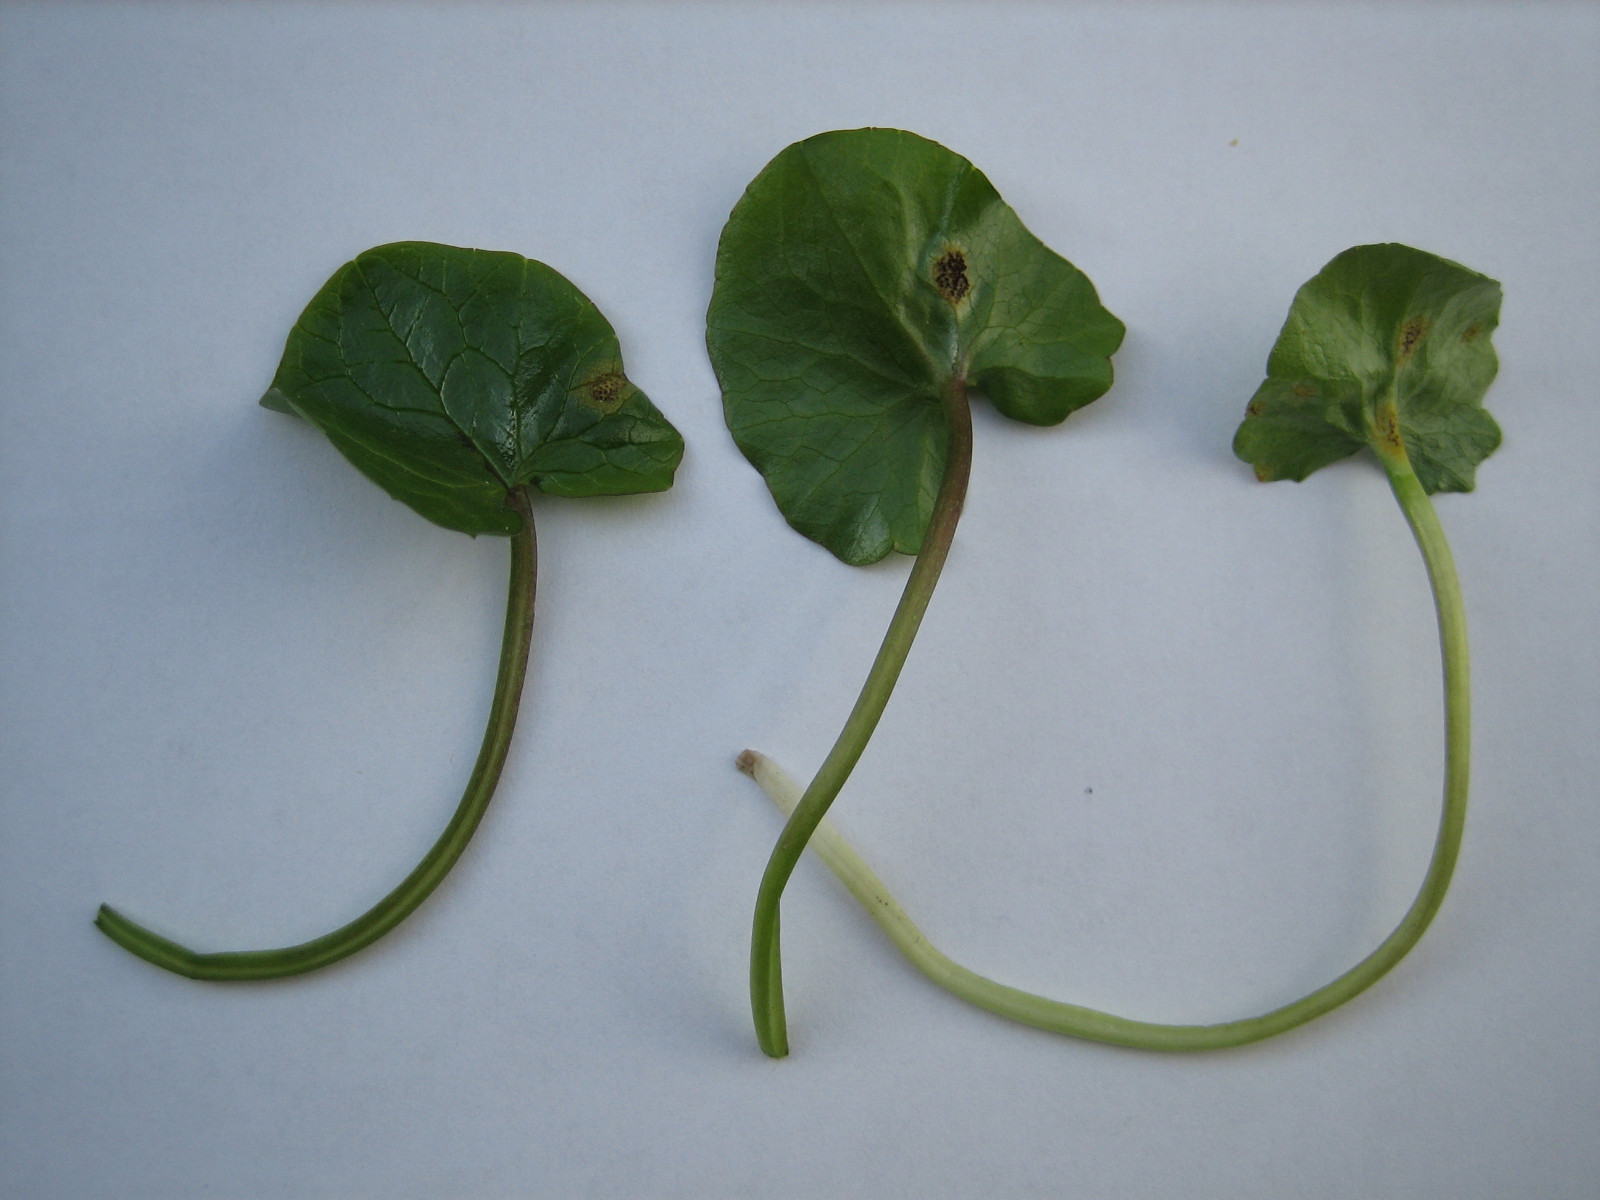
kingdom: Fungi
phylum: Basidiomycota
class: Pucciniomycetes
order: Pucciniales
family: Pucciniaceae
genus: Uromyces
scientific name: Uromyces ficariae
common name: vorterod-encellerust
